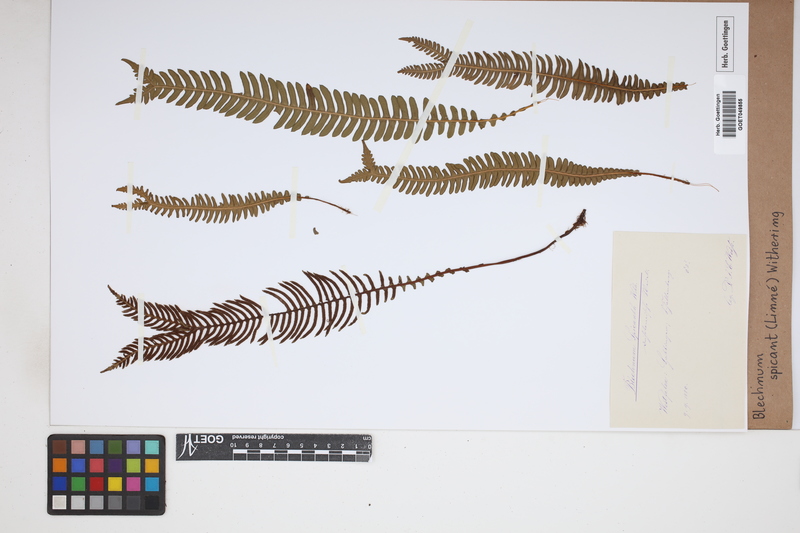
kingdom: Plantae
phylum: Tracheophyta
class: Polypodiopsida
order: Polypodiales
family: Blechnaceae
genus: Struthiopteris
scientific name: Struthiopteris spicant
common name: Deer fern
